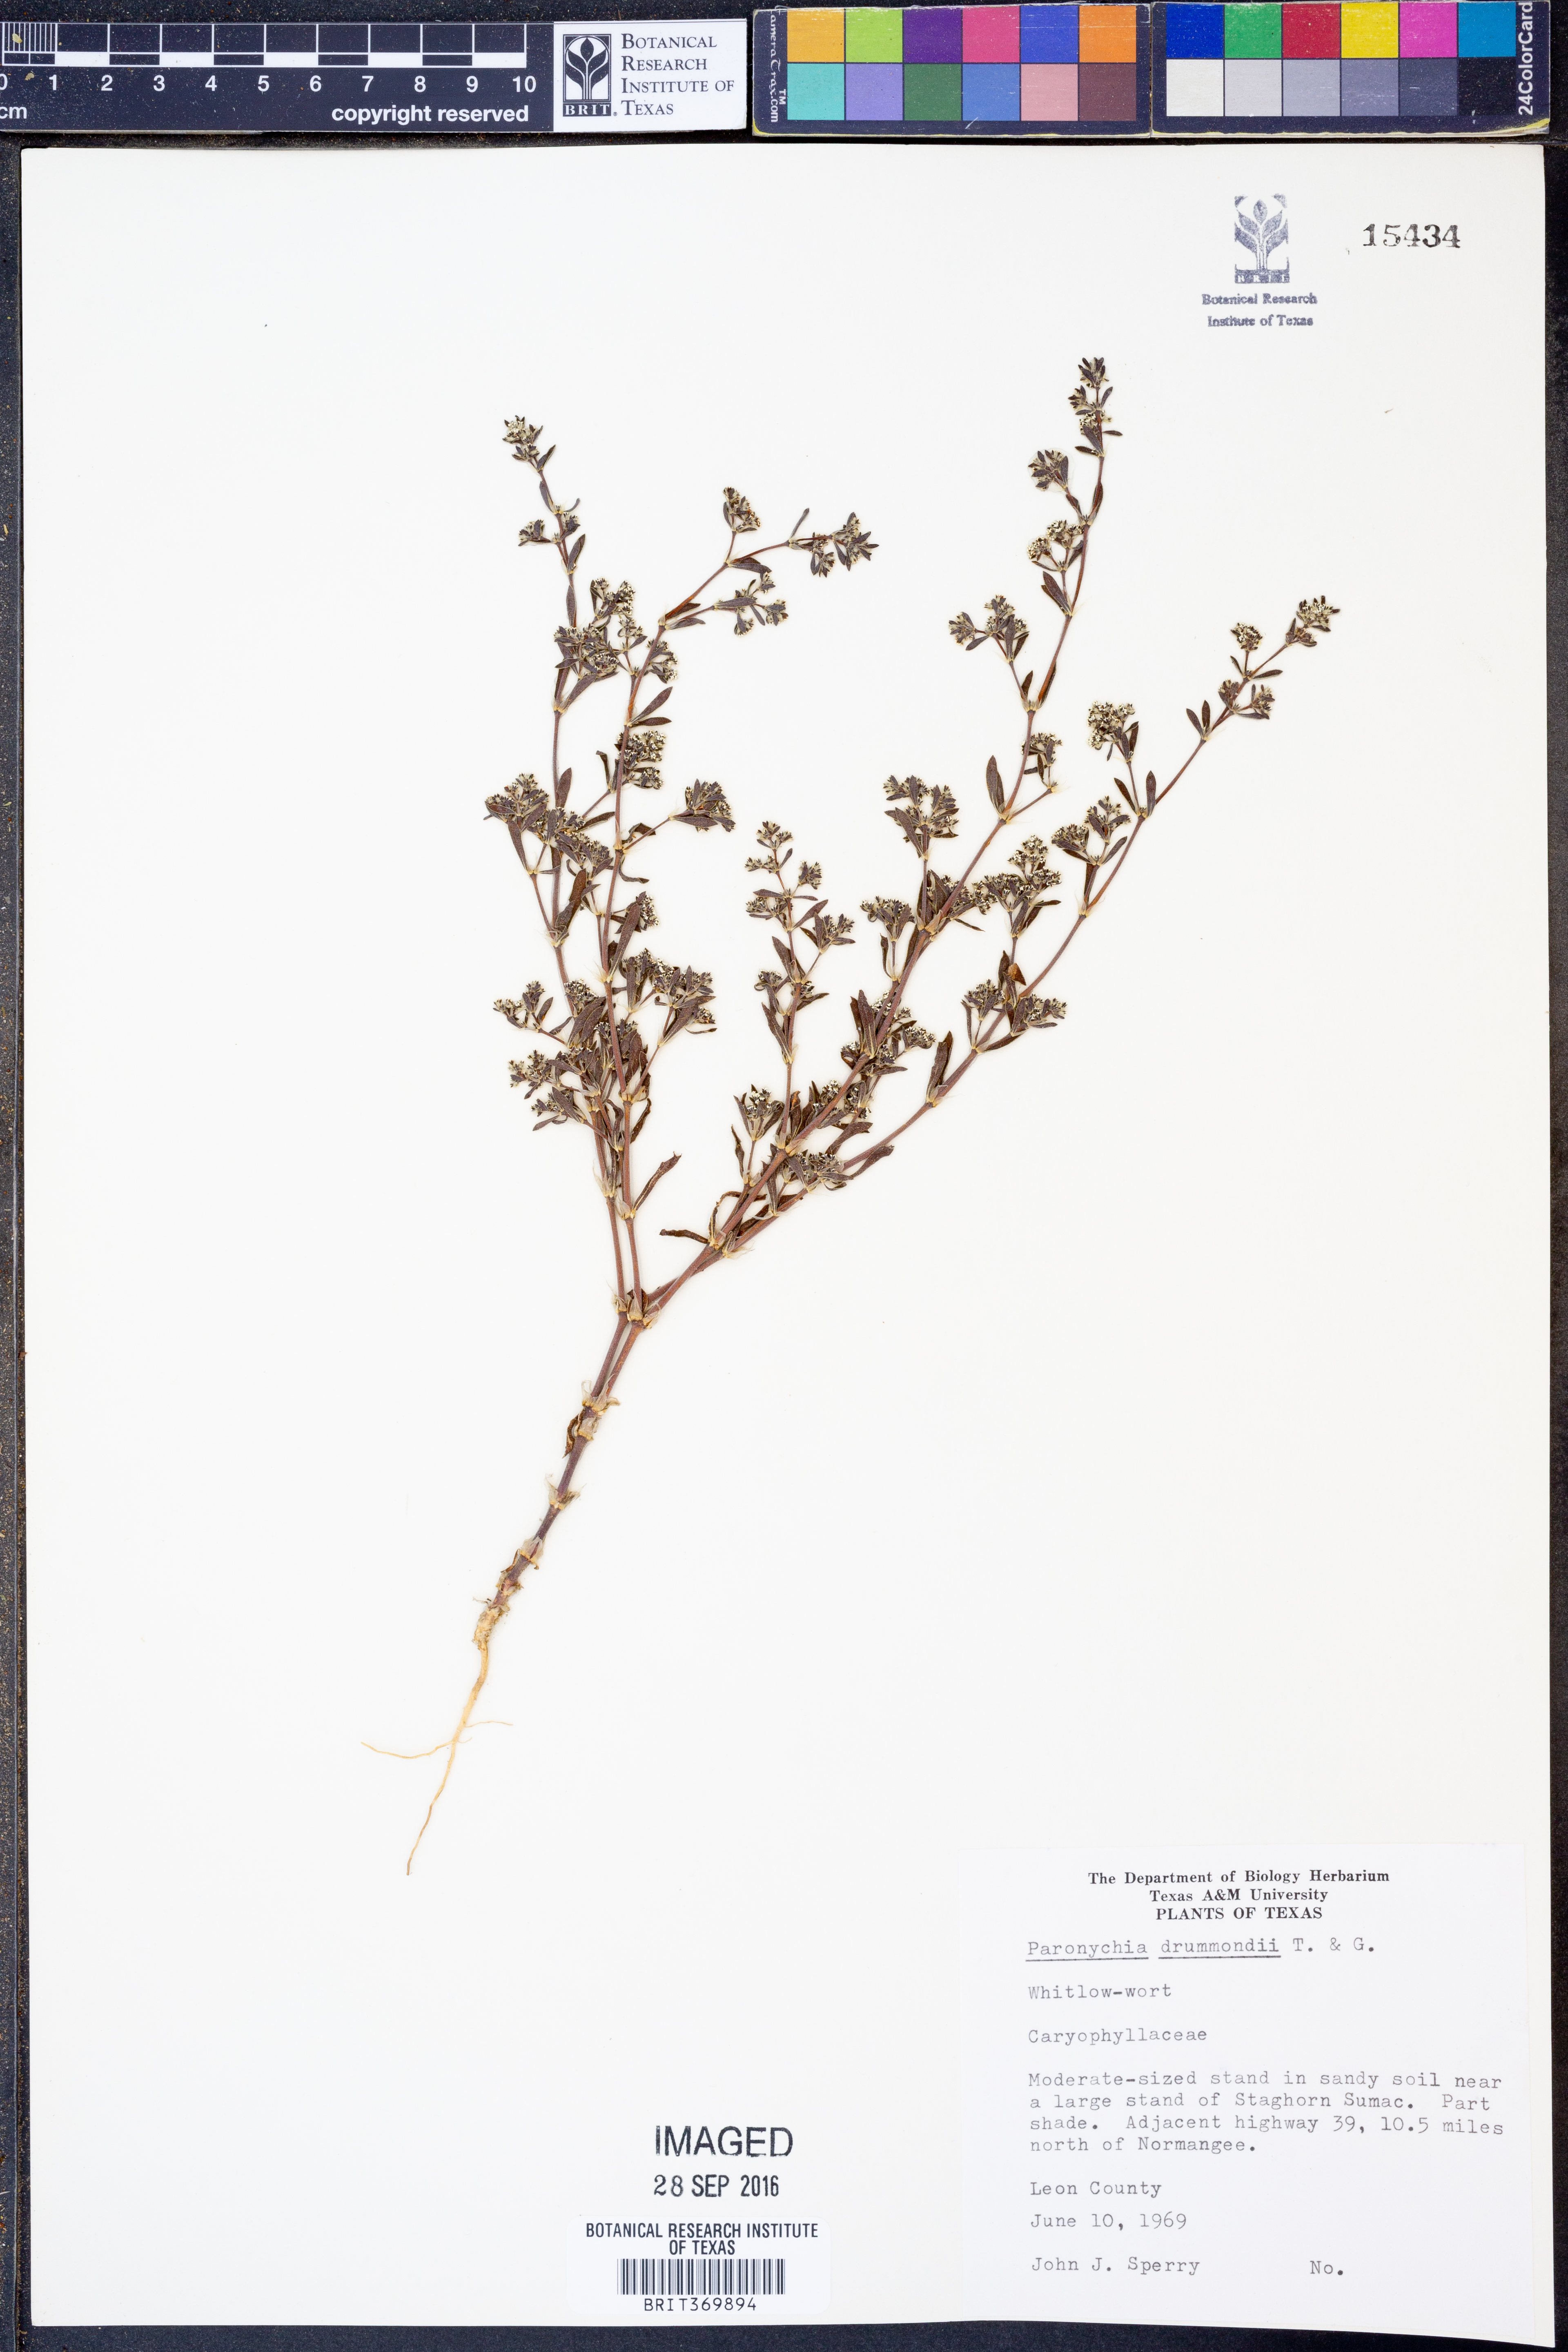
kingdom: Plantae
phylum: Tracheophyta
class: Magnoliopsida
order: Caryophyllales
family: Caryophyllaceae
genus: Paronychia
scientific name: Paronychia drummondii
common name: Drummond's nailwort
